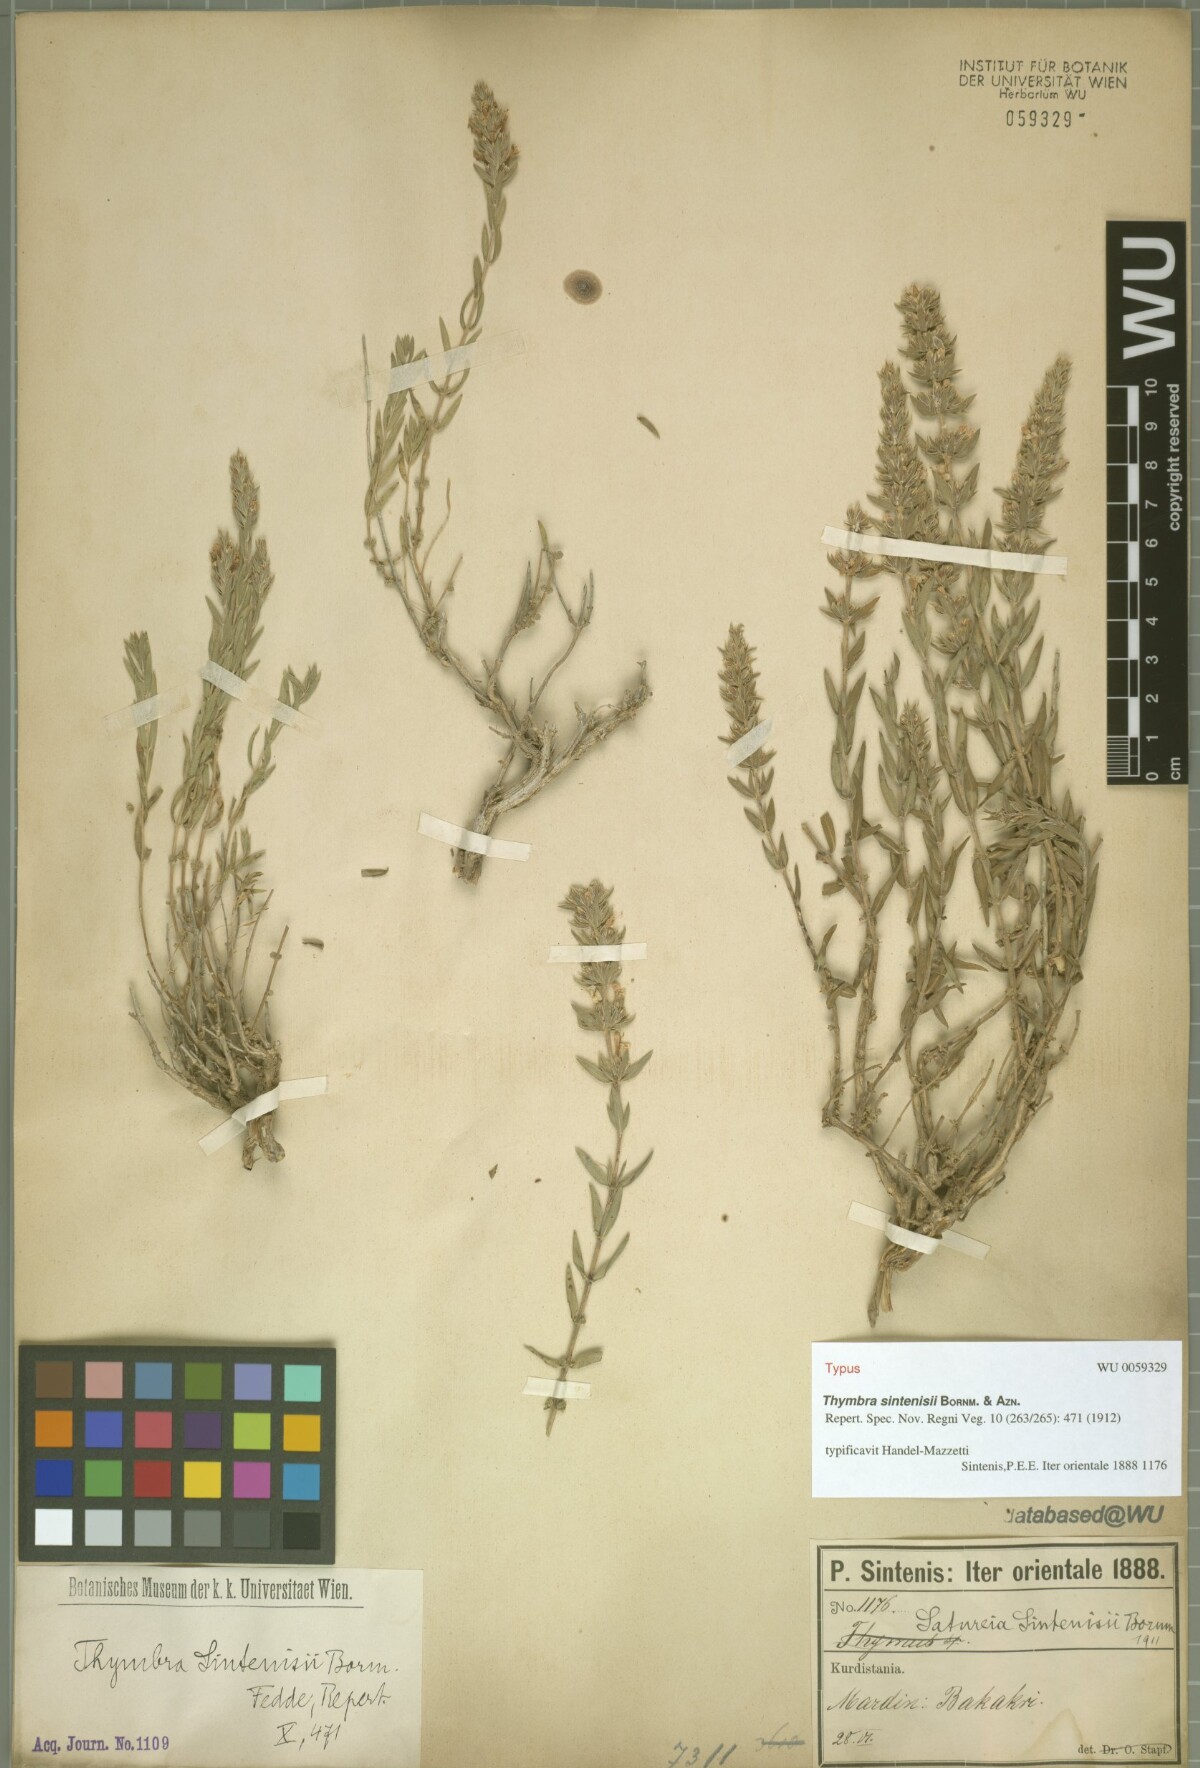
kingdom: Plantae
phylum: Tracheophyta
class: Magnoliopsida
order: Lamiales
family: Lamiaceae
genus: Thymbra
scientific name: Thymbra sintenisii
